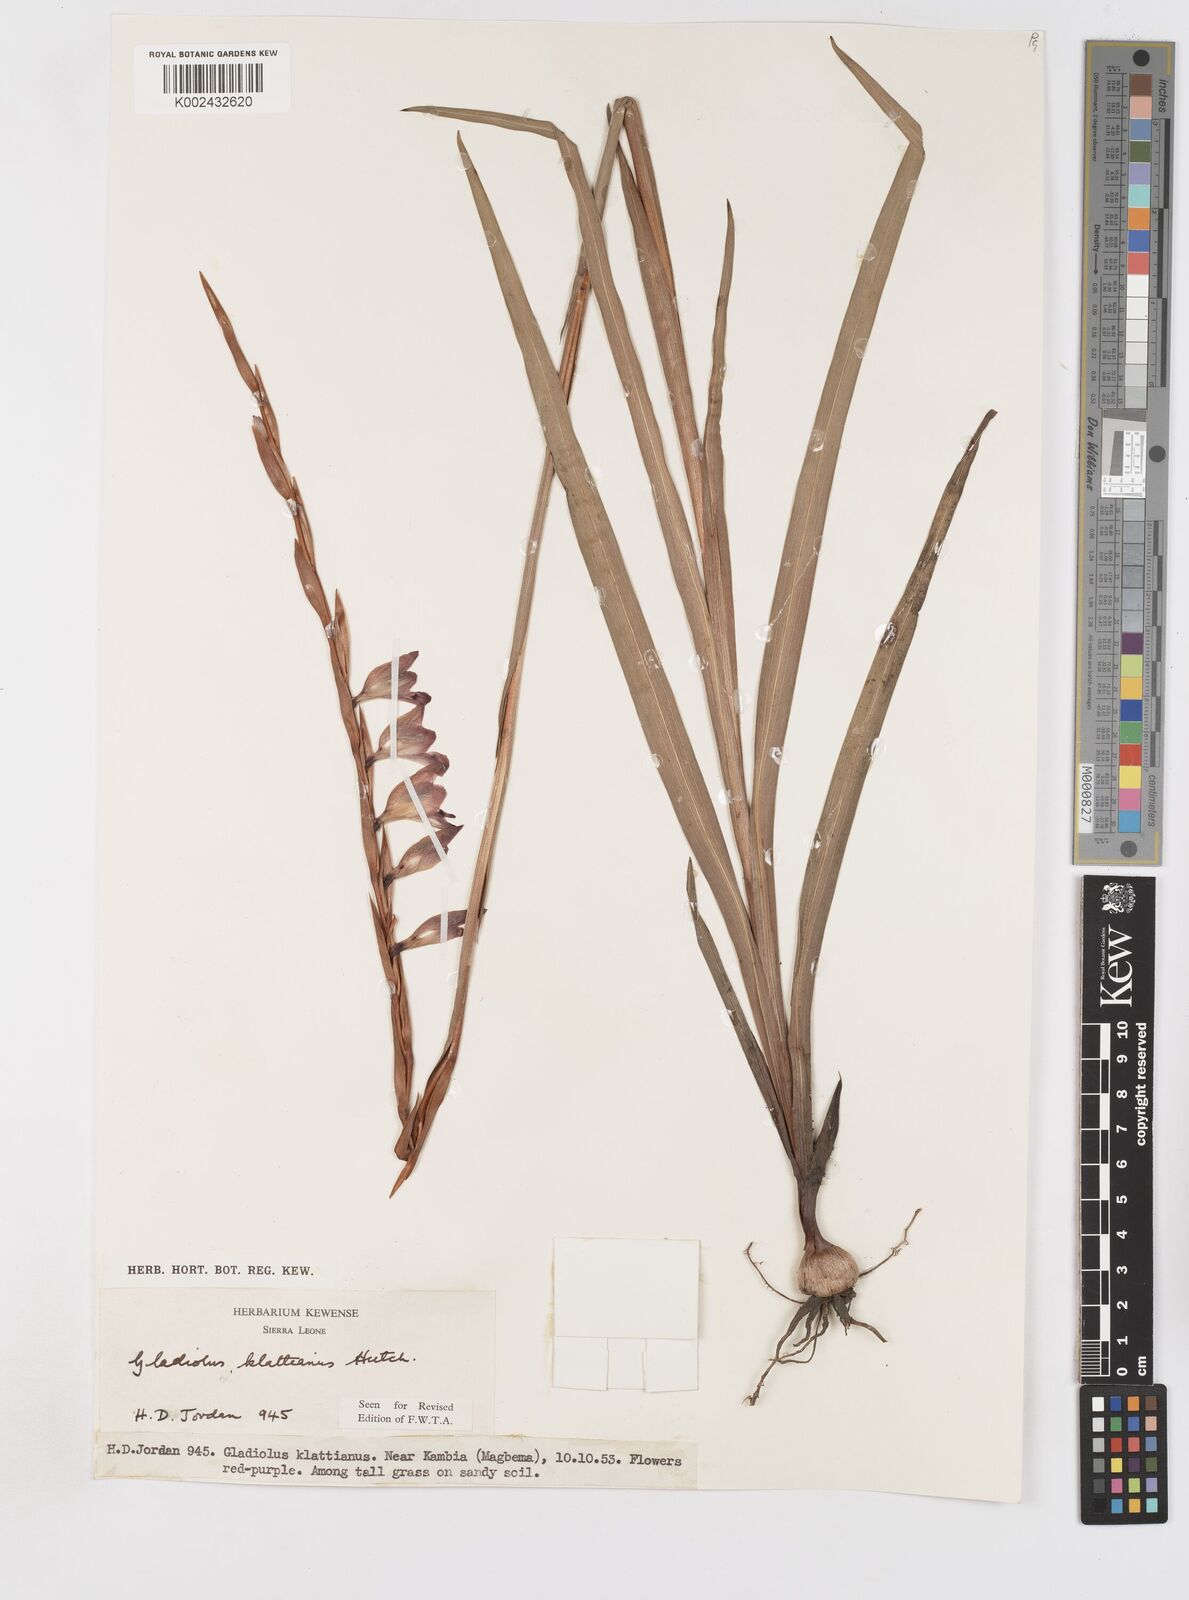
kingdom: Plantae
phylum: Tracheophyta
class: Liliopsida
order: Asparagales
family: Iridaceae
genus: Gladiolus
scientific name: Gladiolus gregarius
